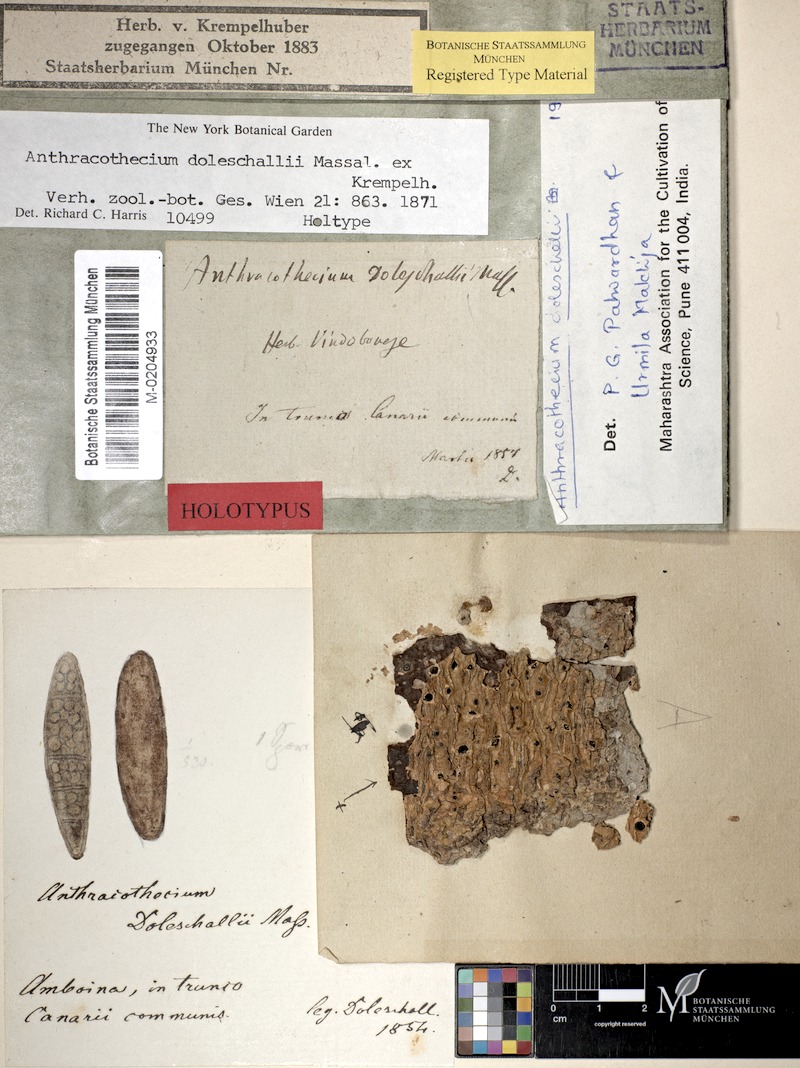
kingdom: Fungi
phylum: Ascomycota
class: Eurotiomycetes
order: Pyrenulales
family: Pyrenulaceae
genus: Anthracothecium
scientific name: Anthracothecium doleschallii
